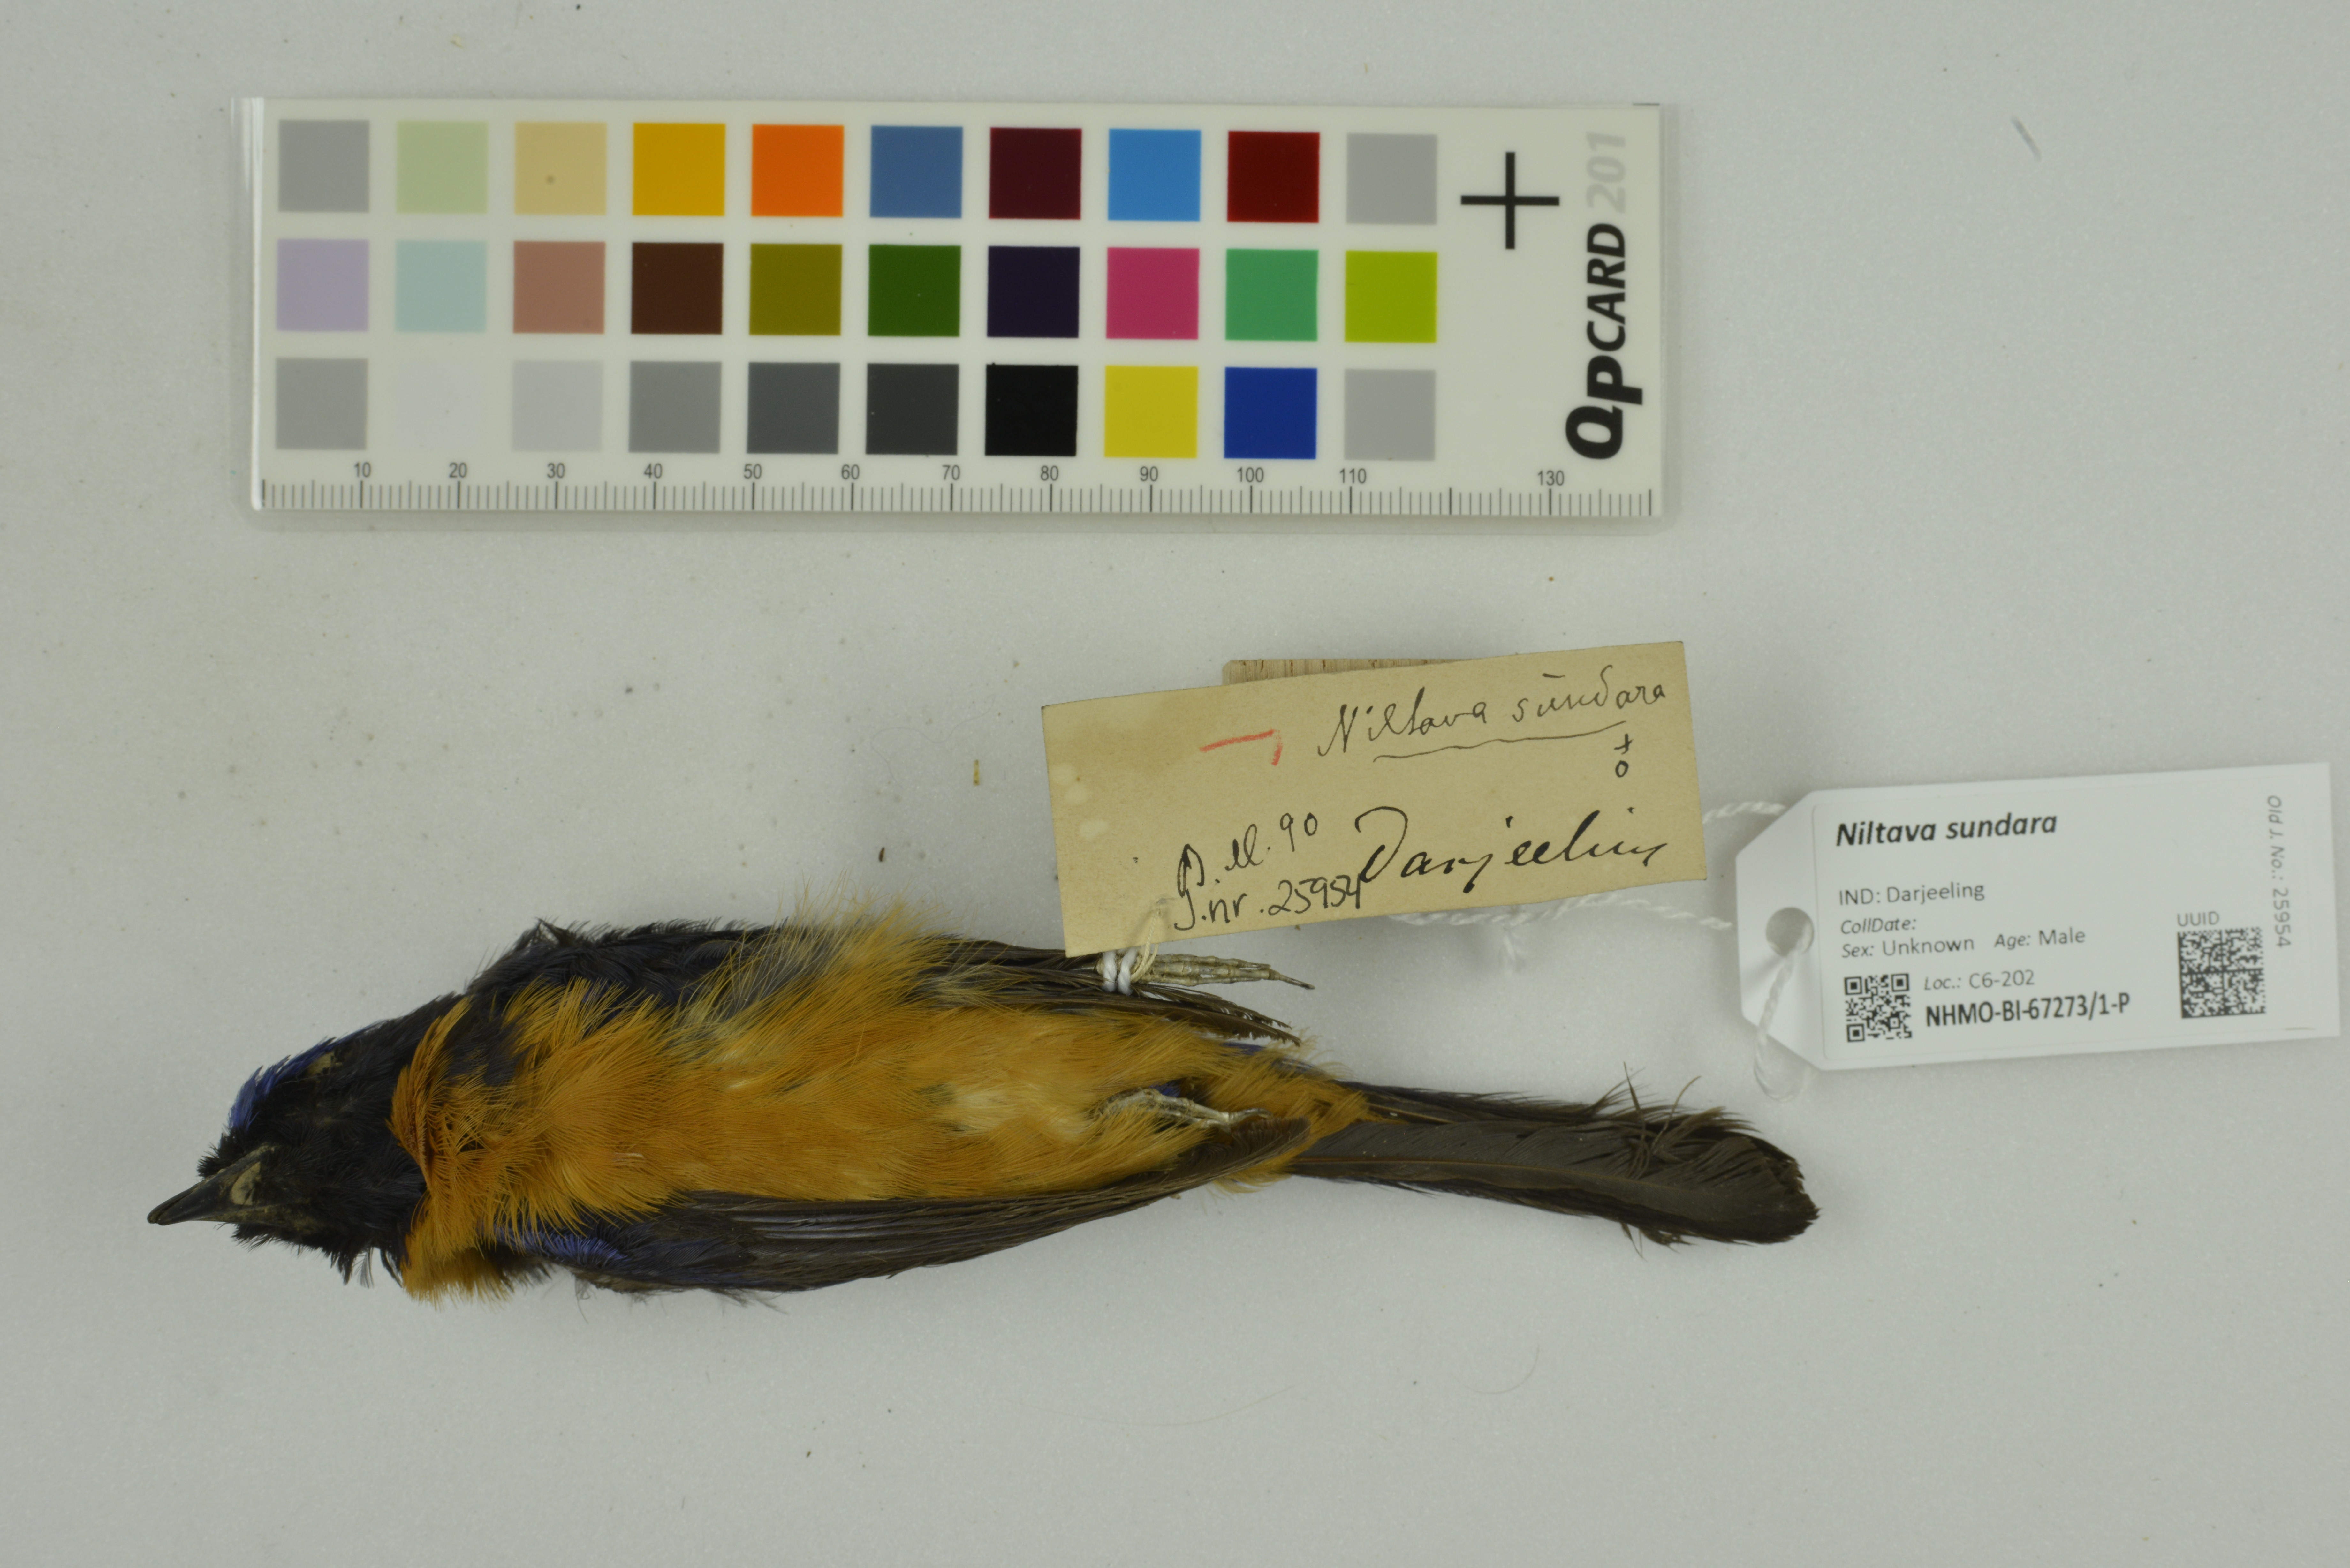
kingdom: Animalia
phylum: Chordata
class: Aves
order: Passeriformes
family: Muscicapidae
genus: Niltava
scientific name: Niltava sundara
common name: Rufous-bellied niltava
